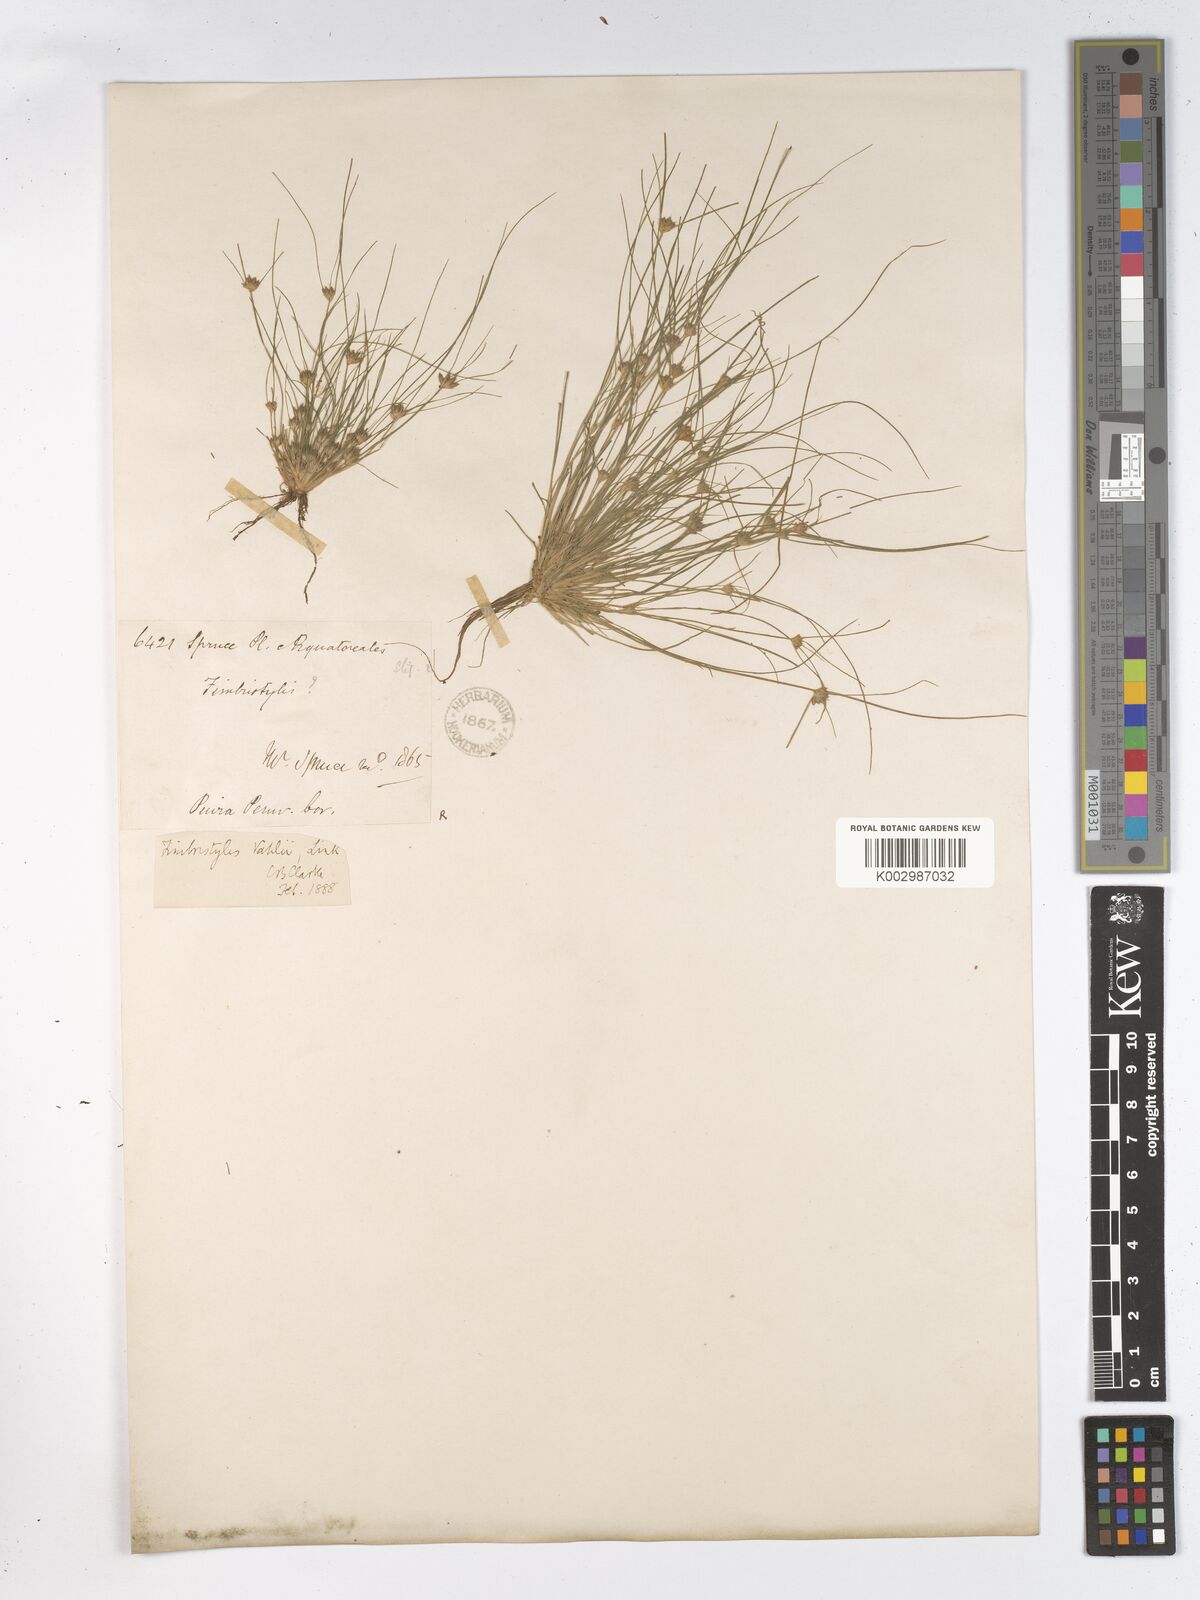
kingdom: Plantae
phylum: Tracheophyta
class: Liliopsida
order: Poales
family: Cyperaceae
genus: Fimbristylis
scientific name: Fimbristylis vahlii
